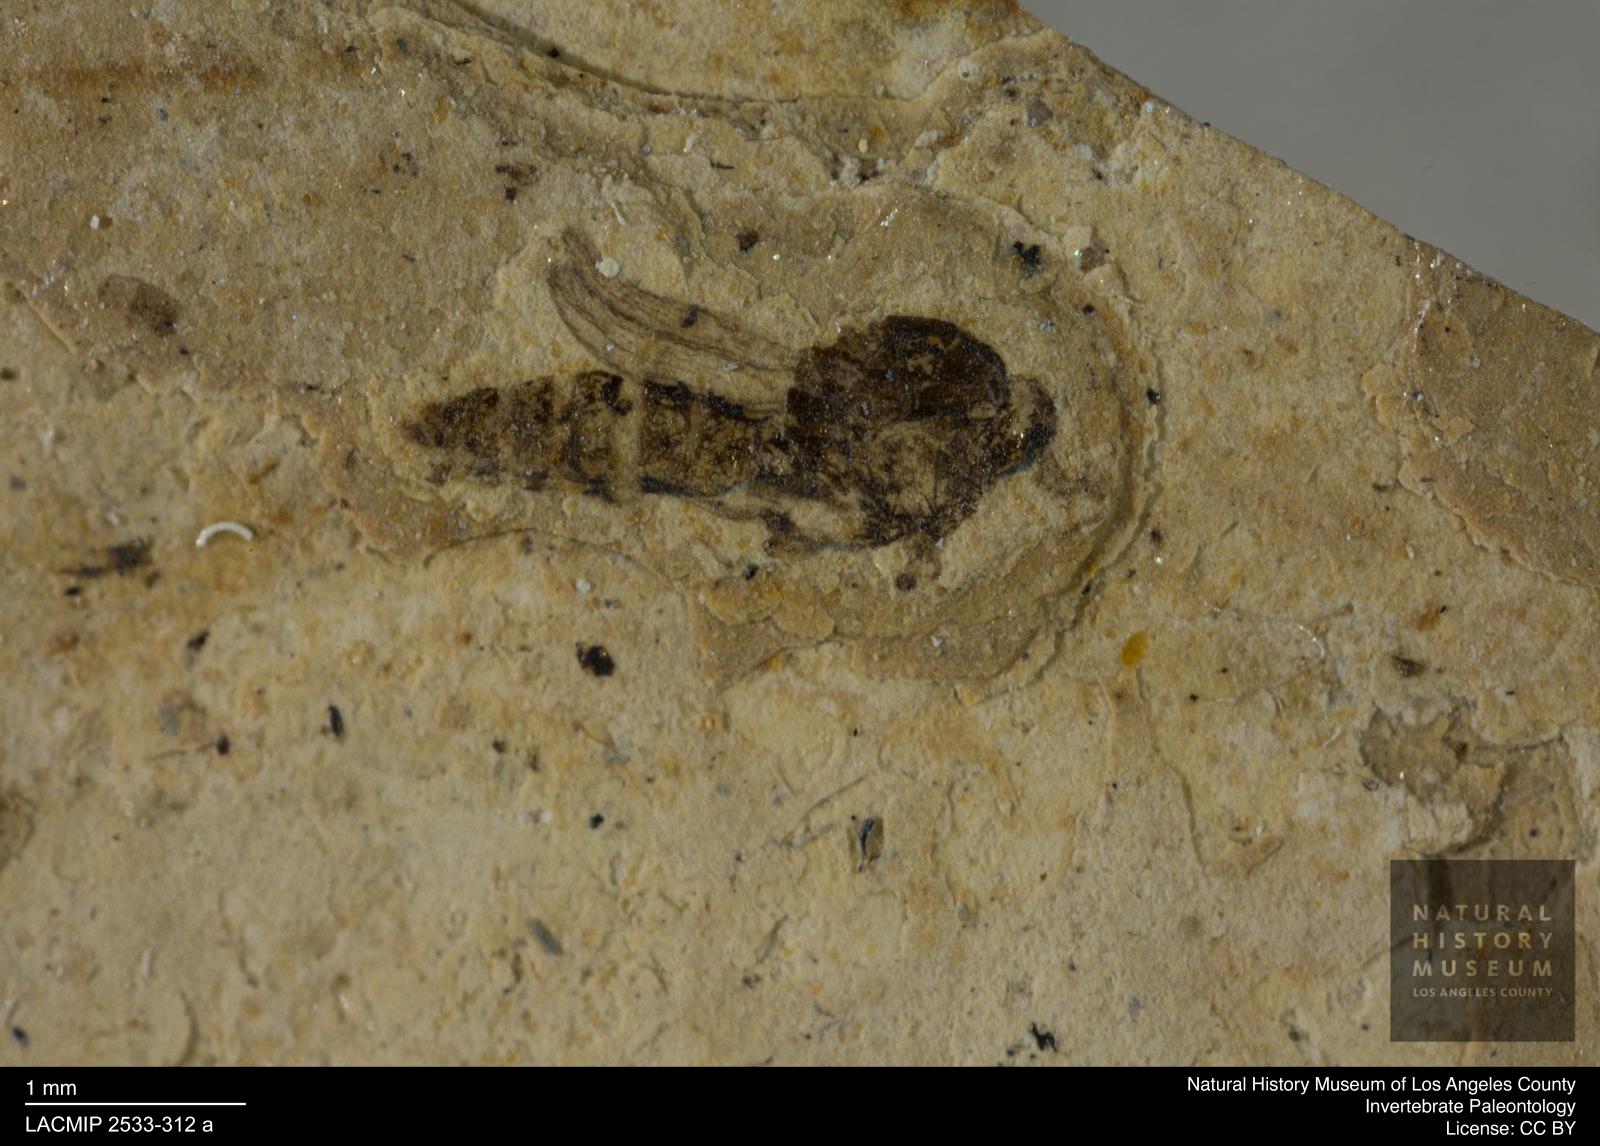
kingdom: Animalia
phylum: Arthropoda
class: Insecta
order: Diptera
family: Ceratopogonidae
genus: Ceratopogon
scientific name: Ceratopogon
